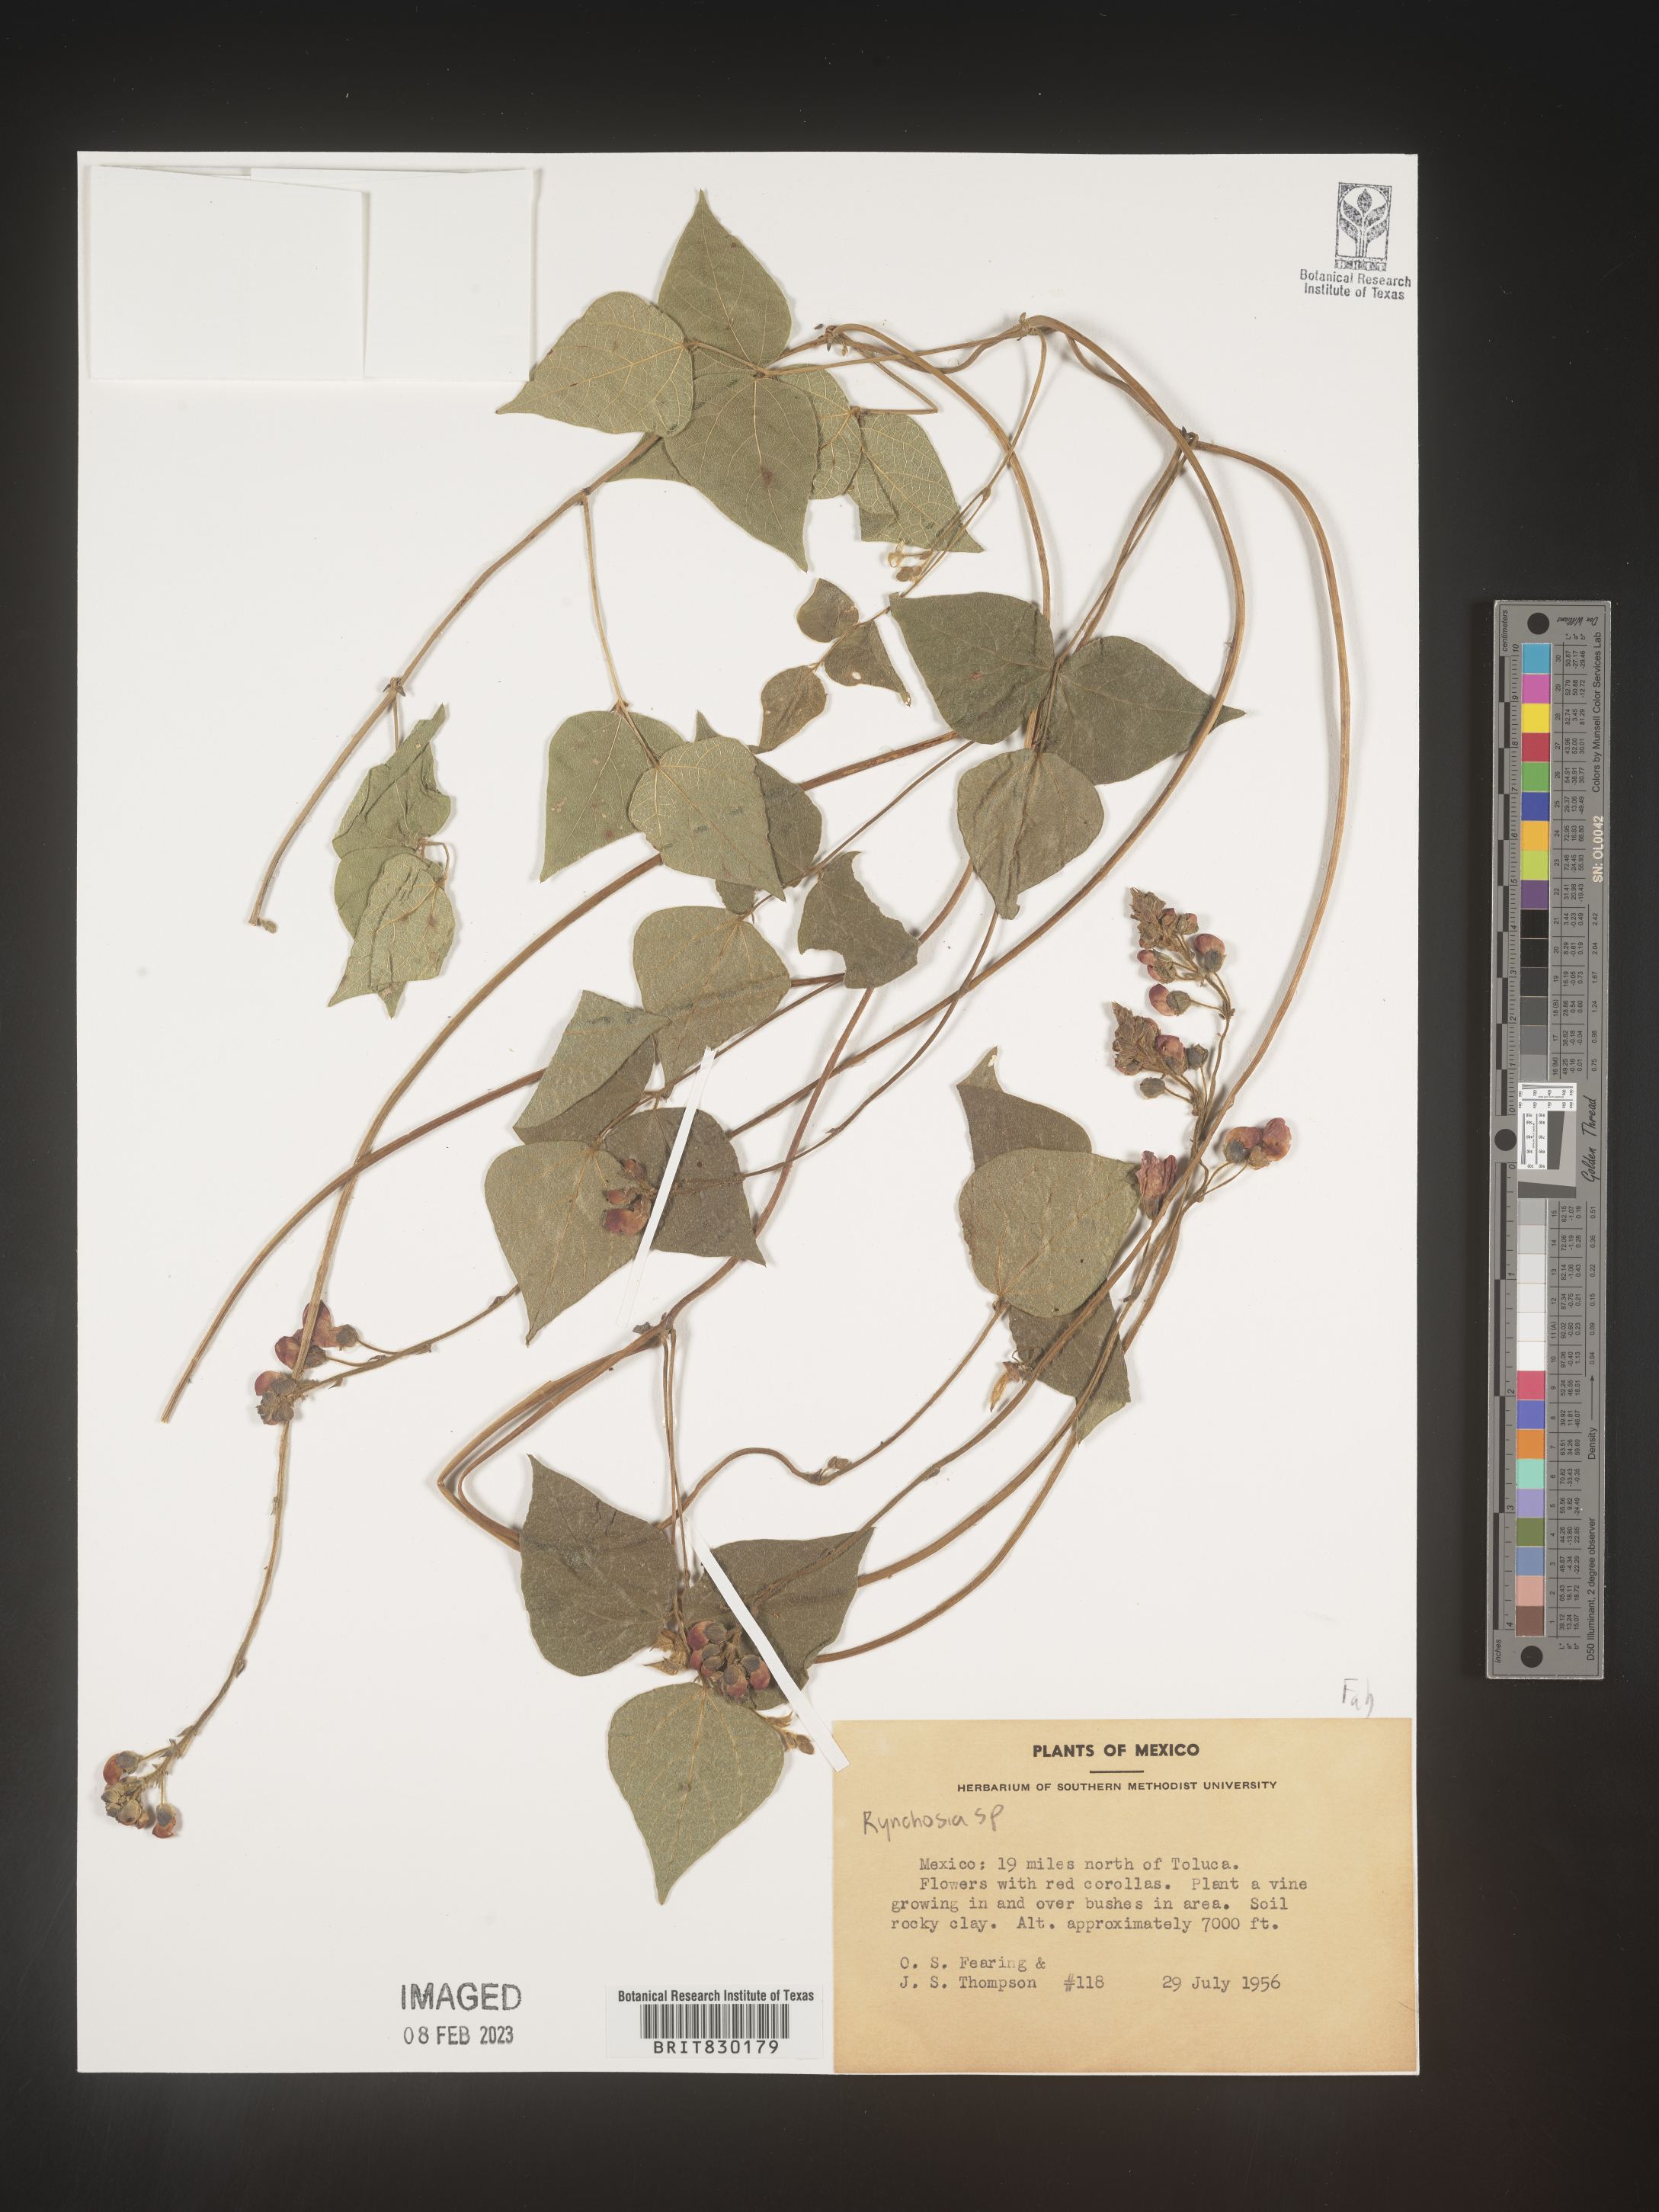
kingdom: Plantae
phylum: Tracheophyta
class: Magnoliopsida
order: Fabales
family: Fabaceae
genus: Rhynchosia
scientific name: Rhynchosia
